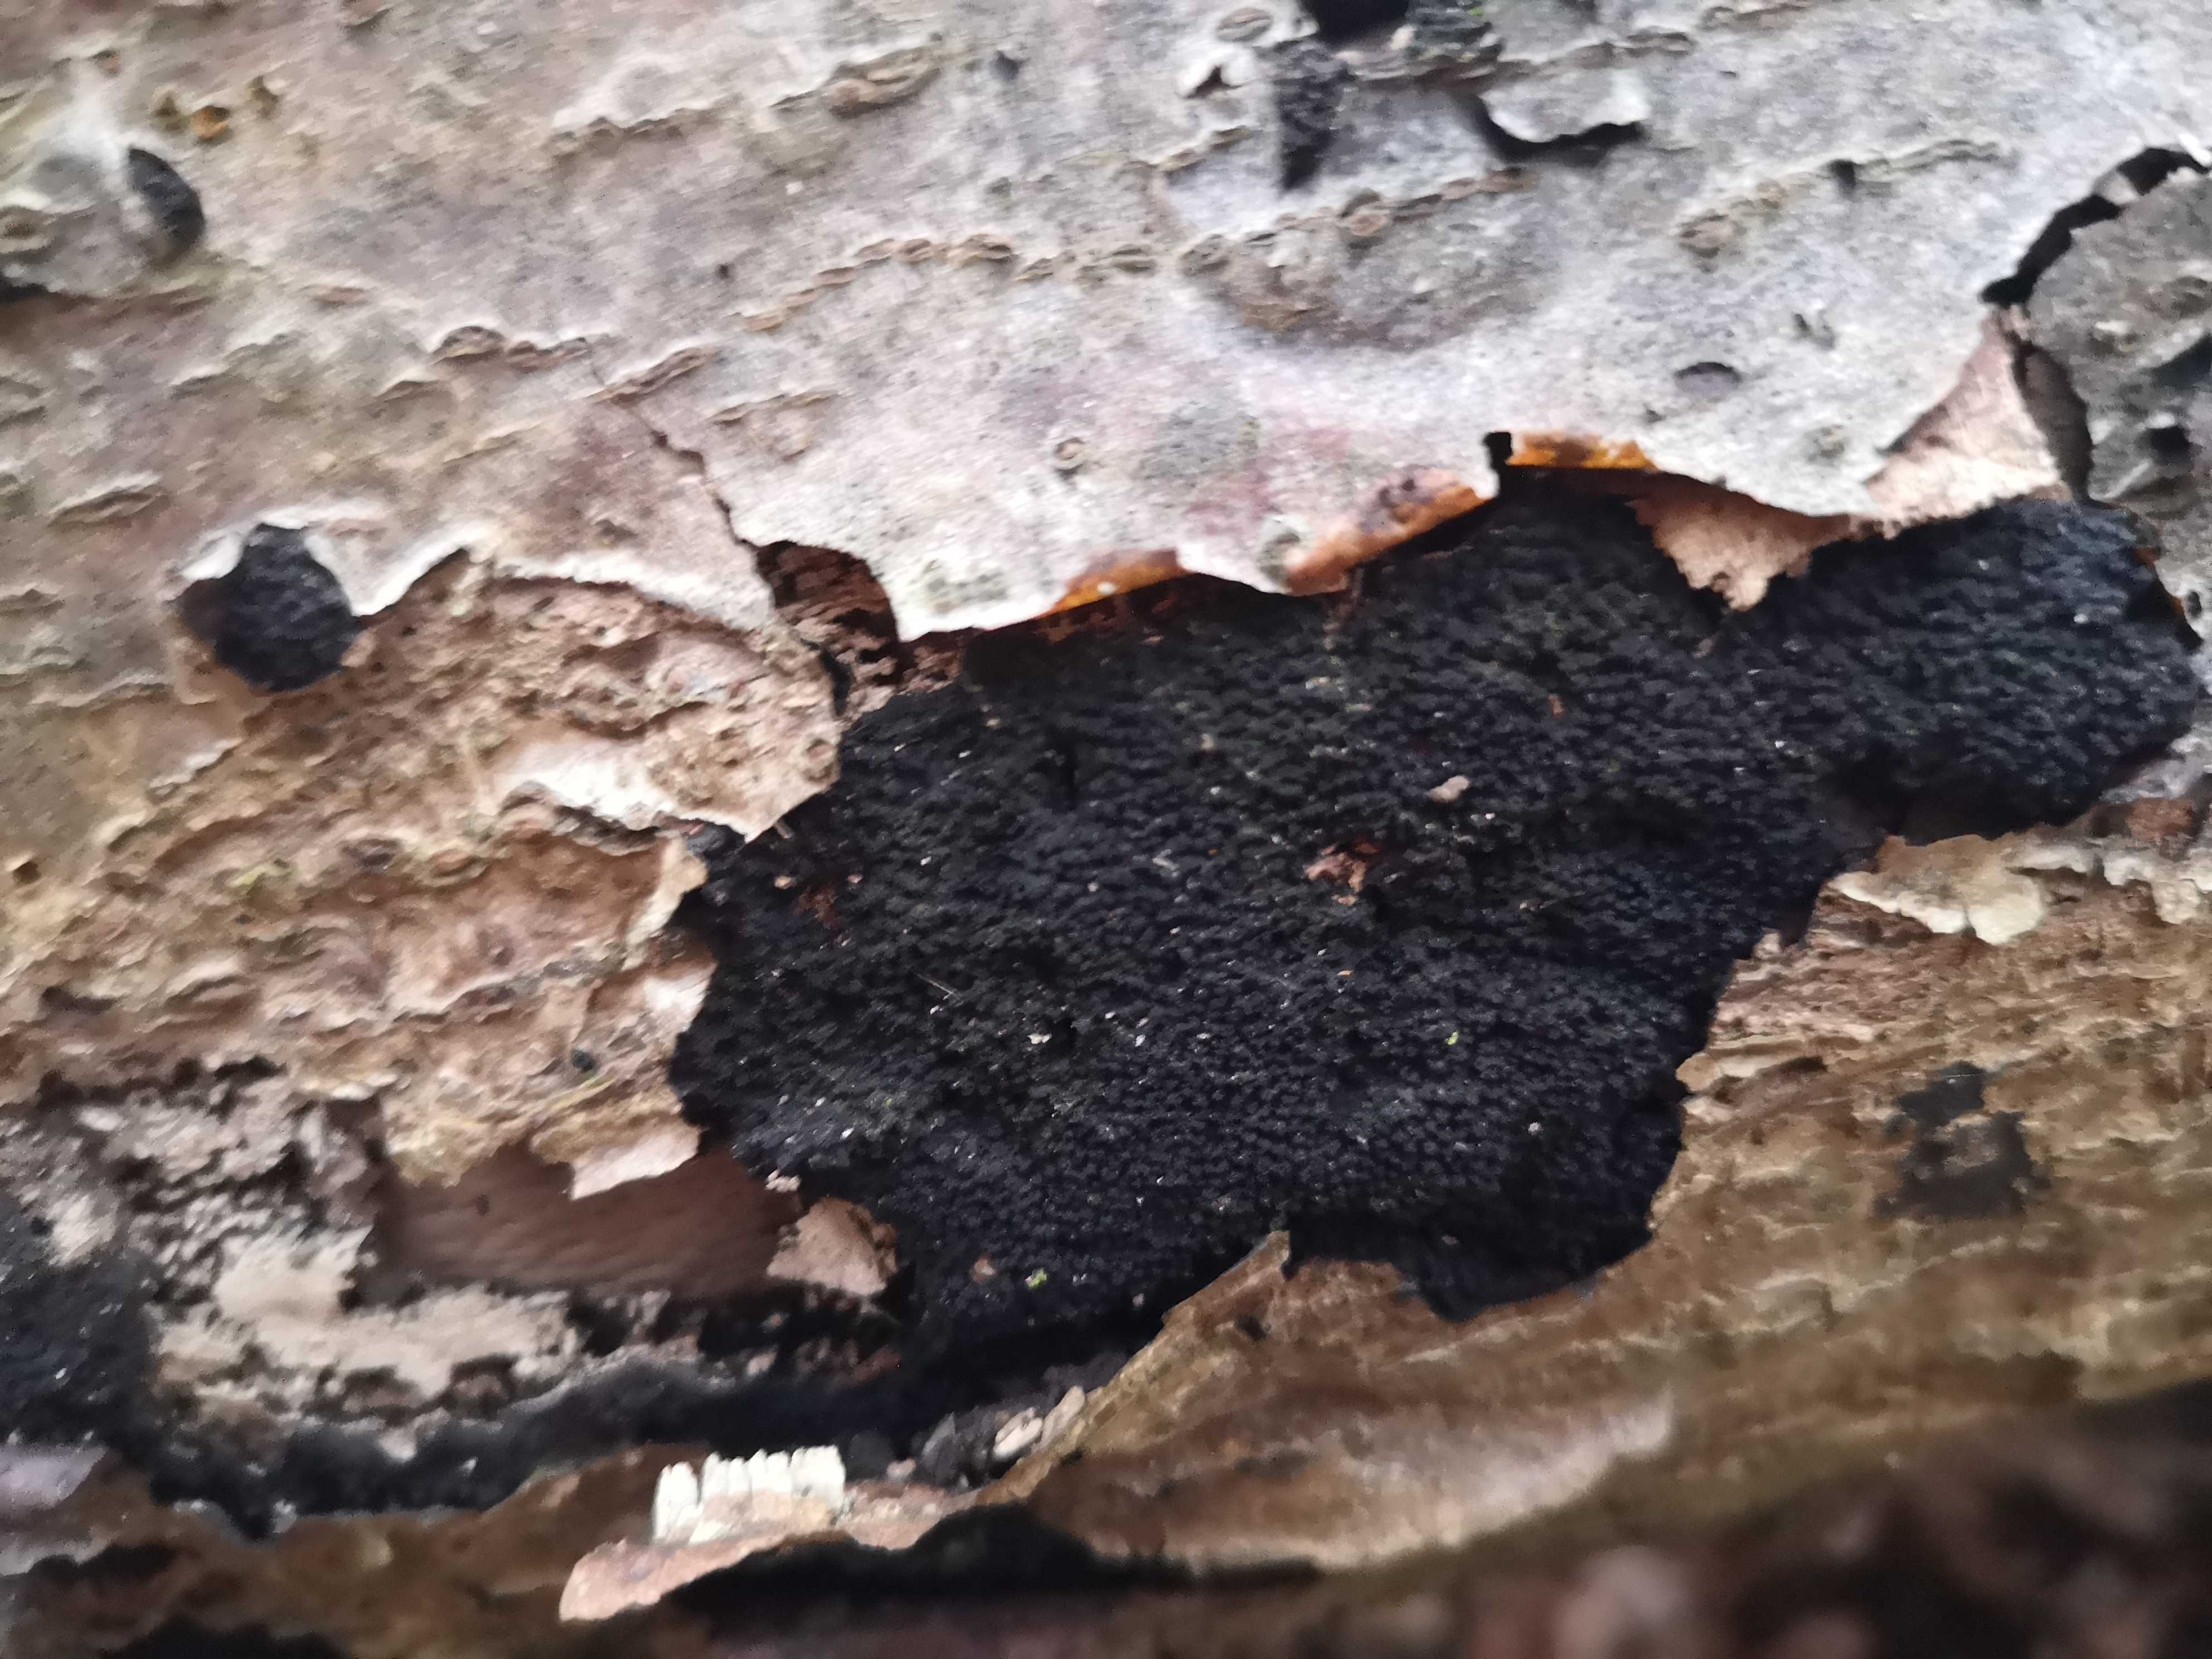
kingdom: Fungi
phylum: Ascomycota
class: Sordariomycetes
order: Xylariales
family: Diatrypaceae
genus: Eutypa
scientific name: Eutypa spinosa
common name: grov kulskorpe
